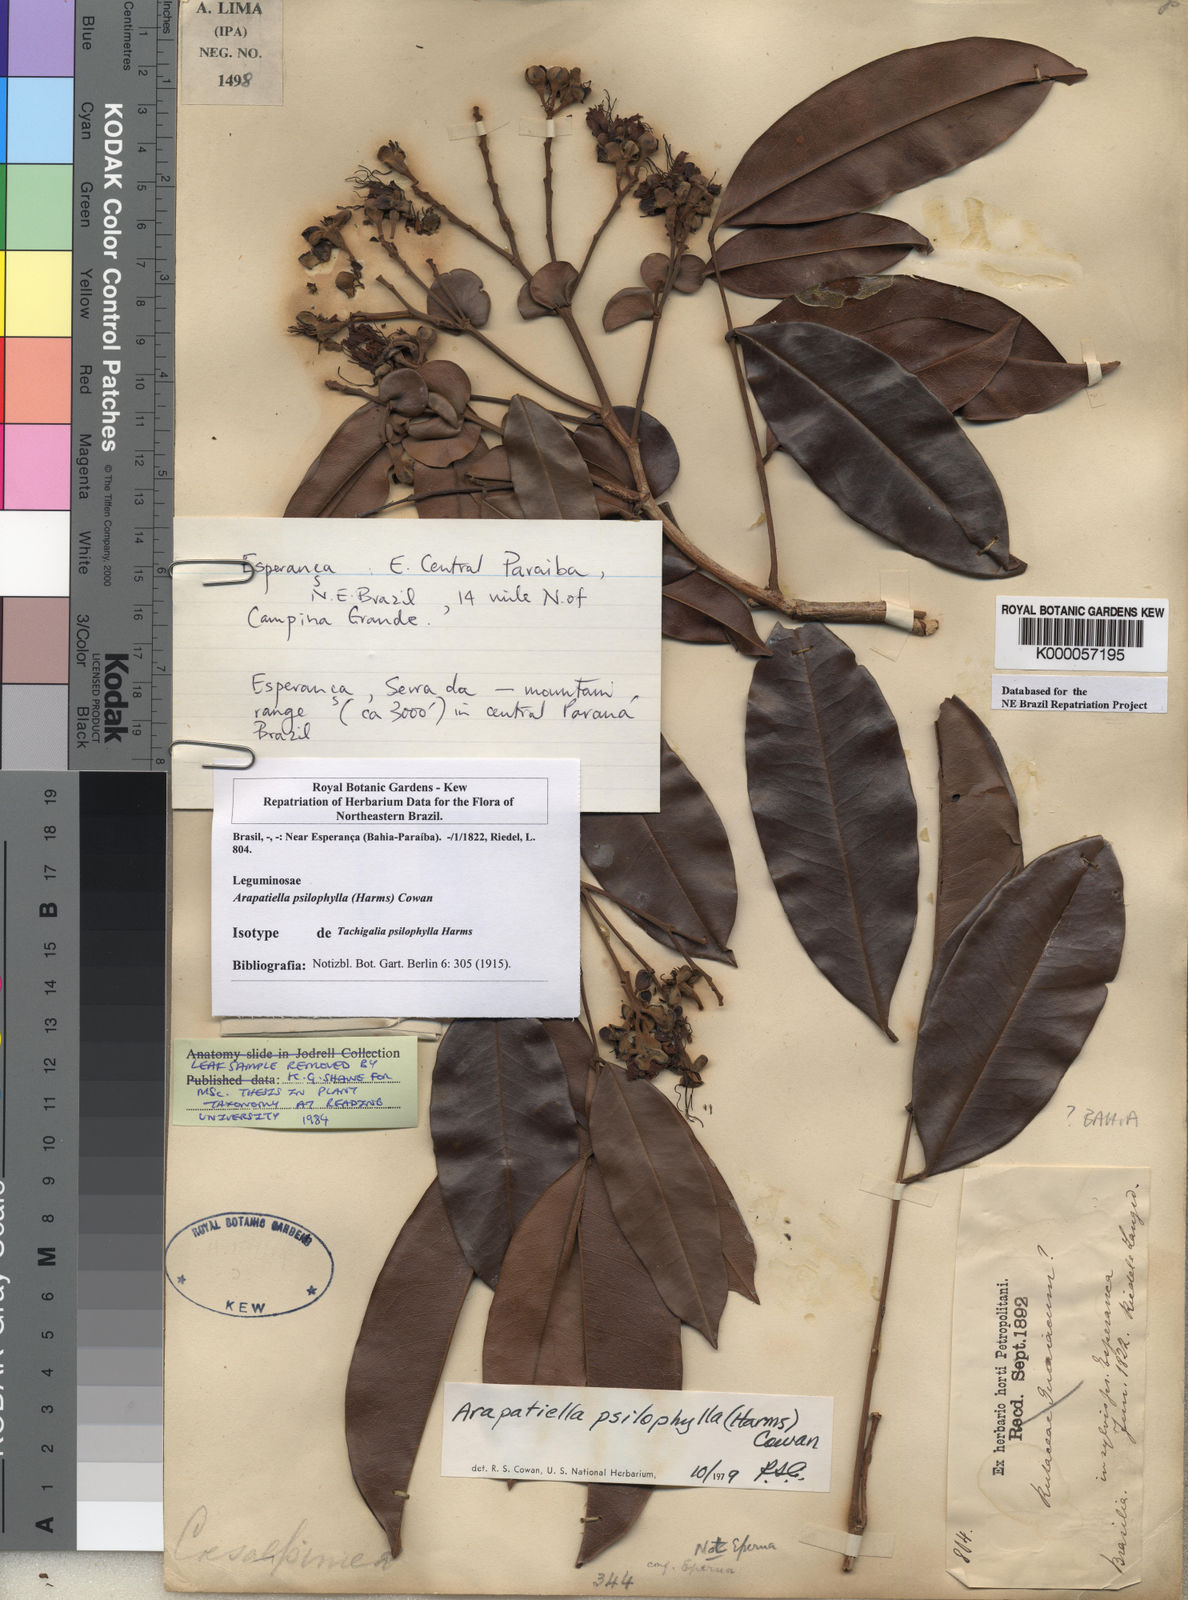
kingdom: Plantae
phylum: Tracheophyta
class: Magnoliopsida
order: Fabales
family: Fabaceae
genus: Arapatiella
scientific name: Arapatiella psilophylla
